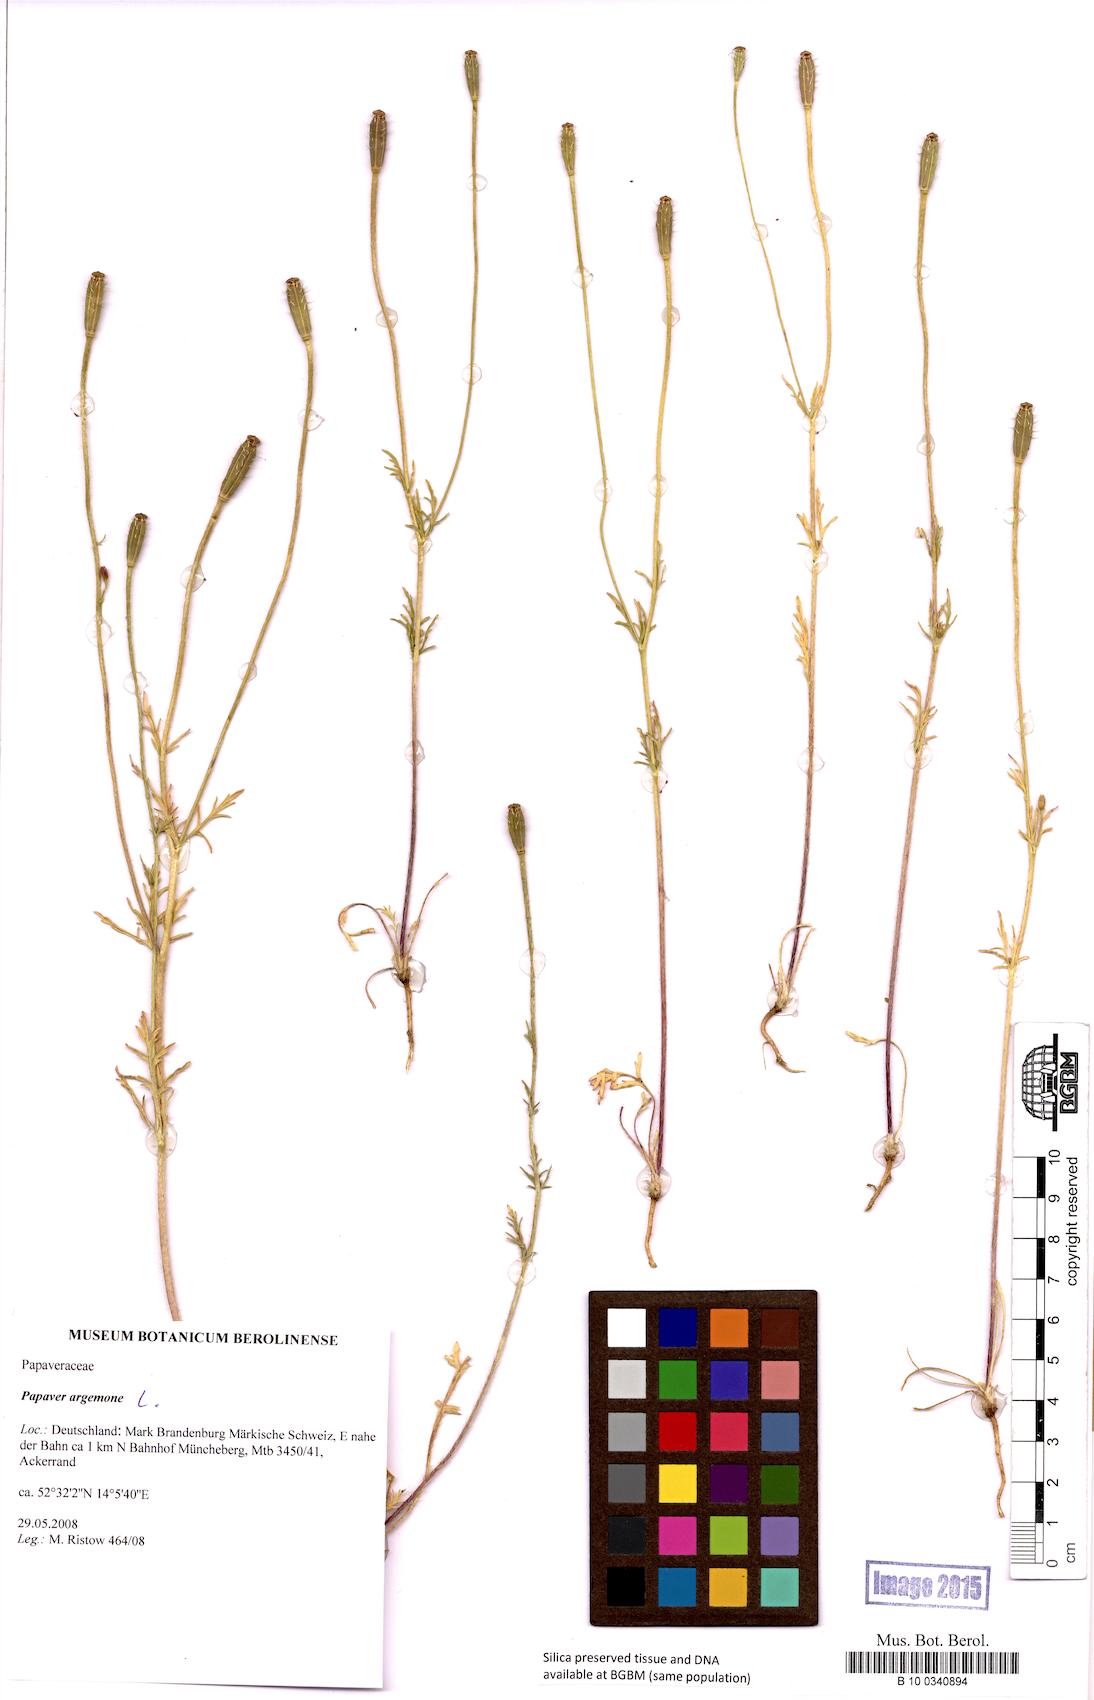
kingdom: Plantae
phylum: Tracheophyta
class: Magnoliopsida
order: Ranunculales
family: Papaveraceae
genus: Roemeria
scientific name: Roemeria argemone
